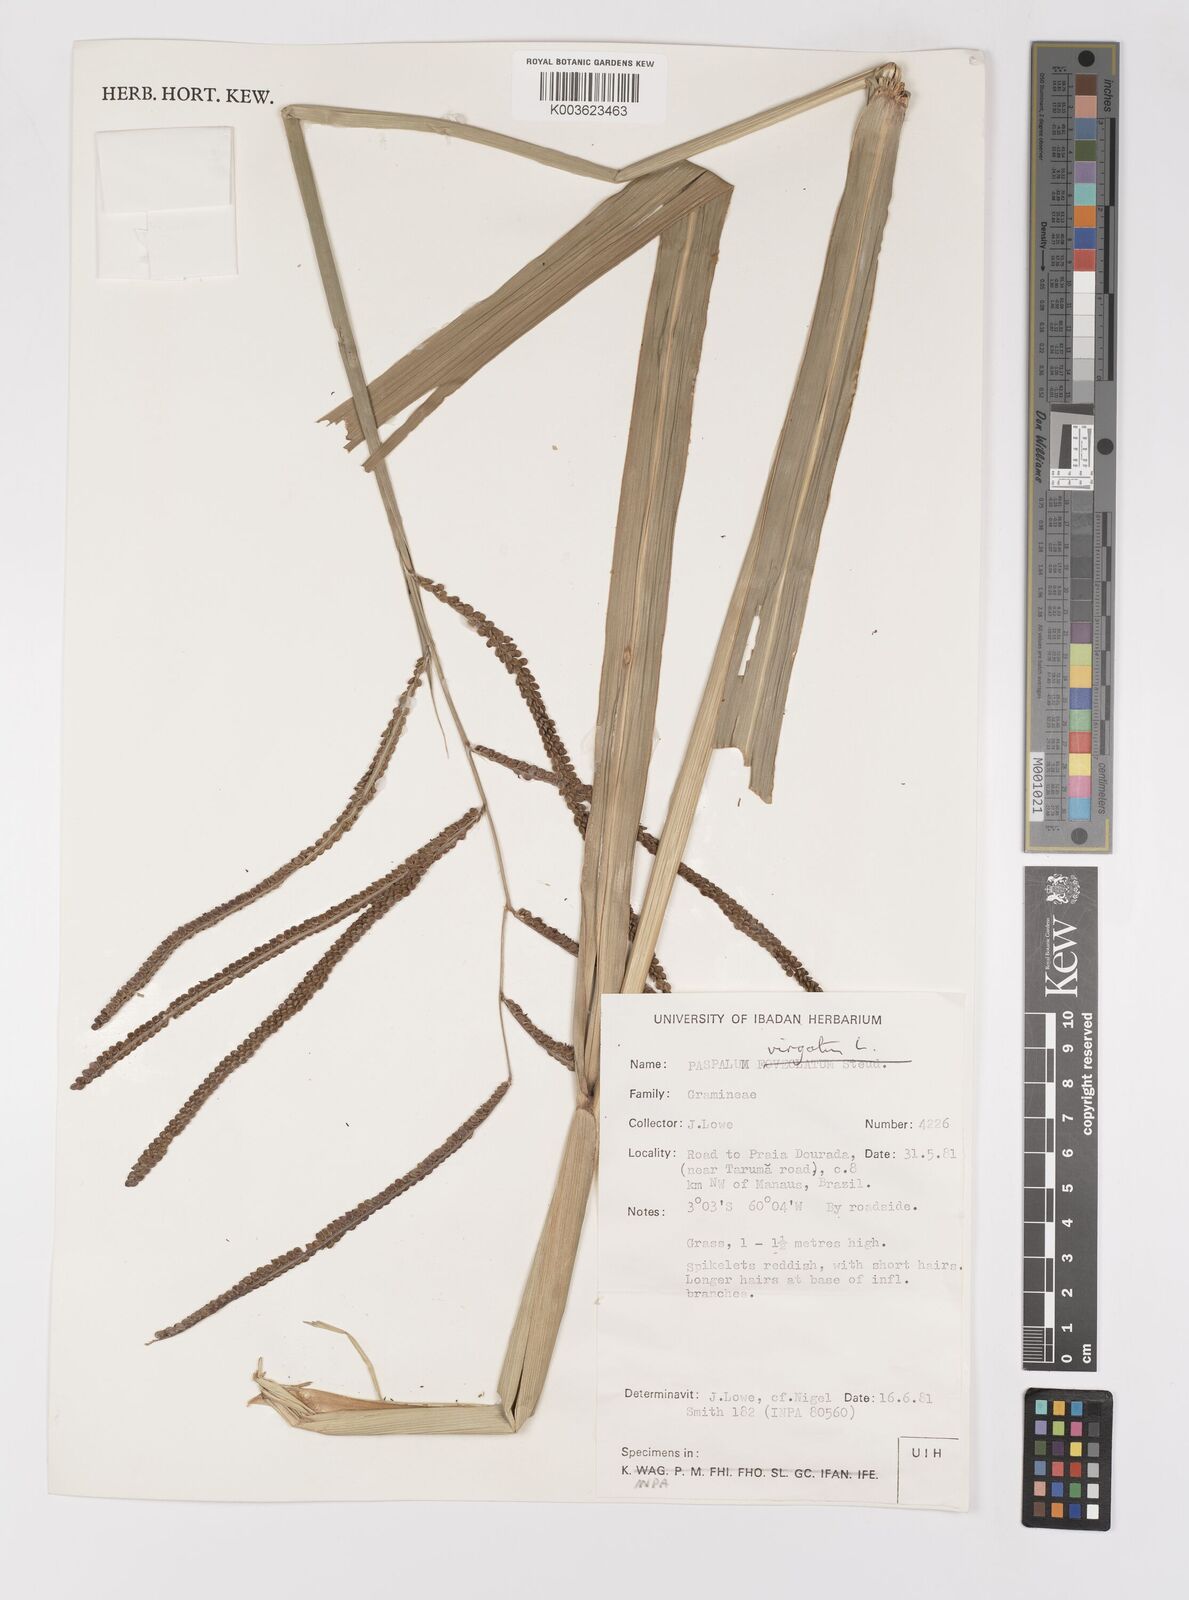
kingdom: Plantae
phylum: Tracheophyta
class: Liliopsida
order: Poales
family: Poaceae
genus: Paspalum
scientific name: Paspalum virgatum
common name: Talquezal
